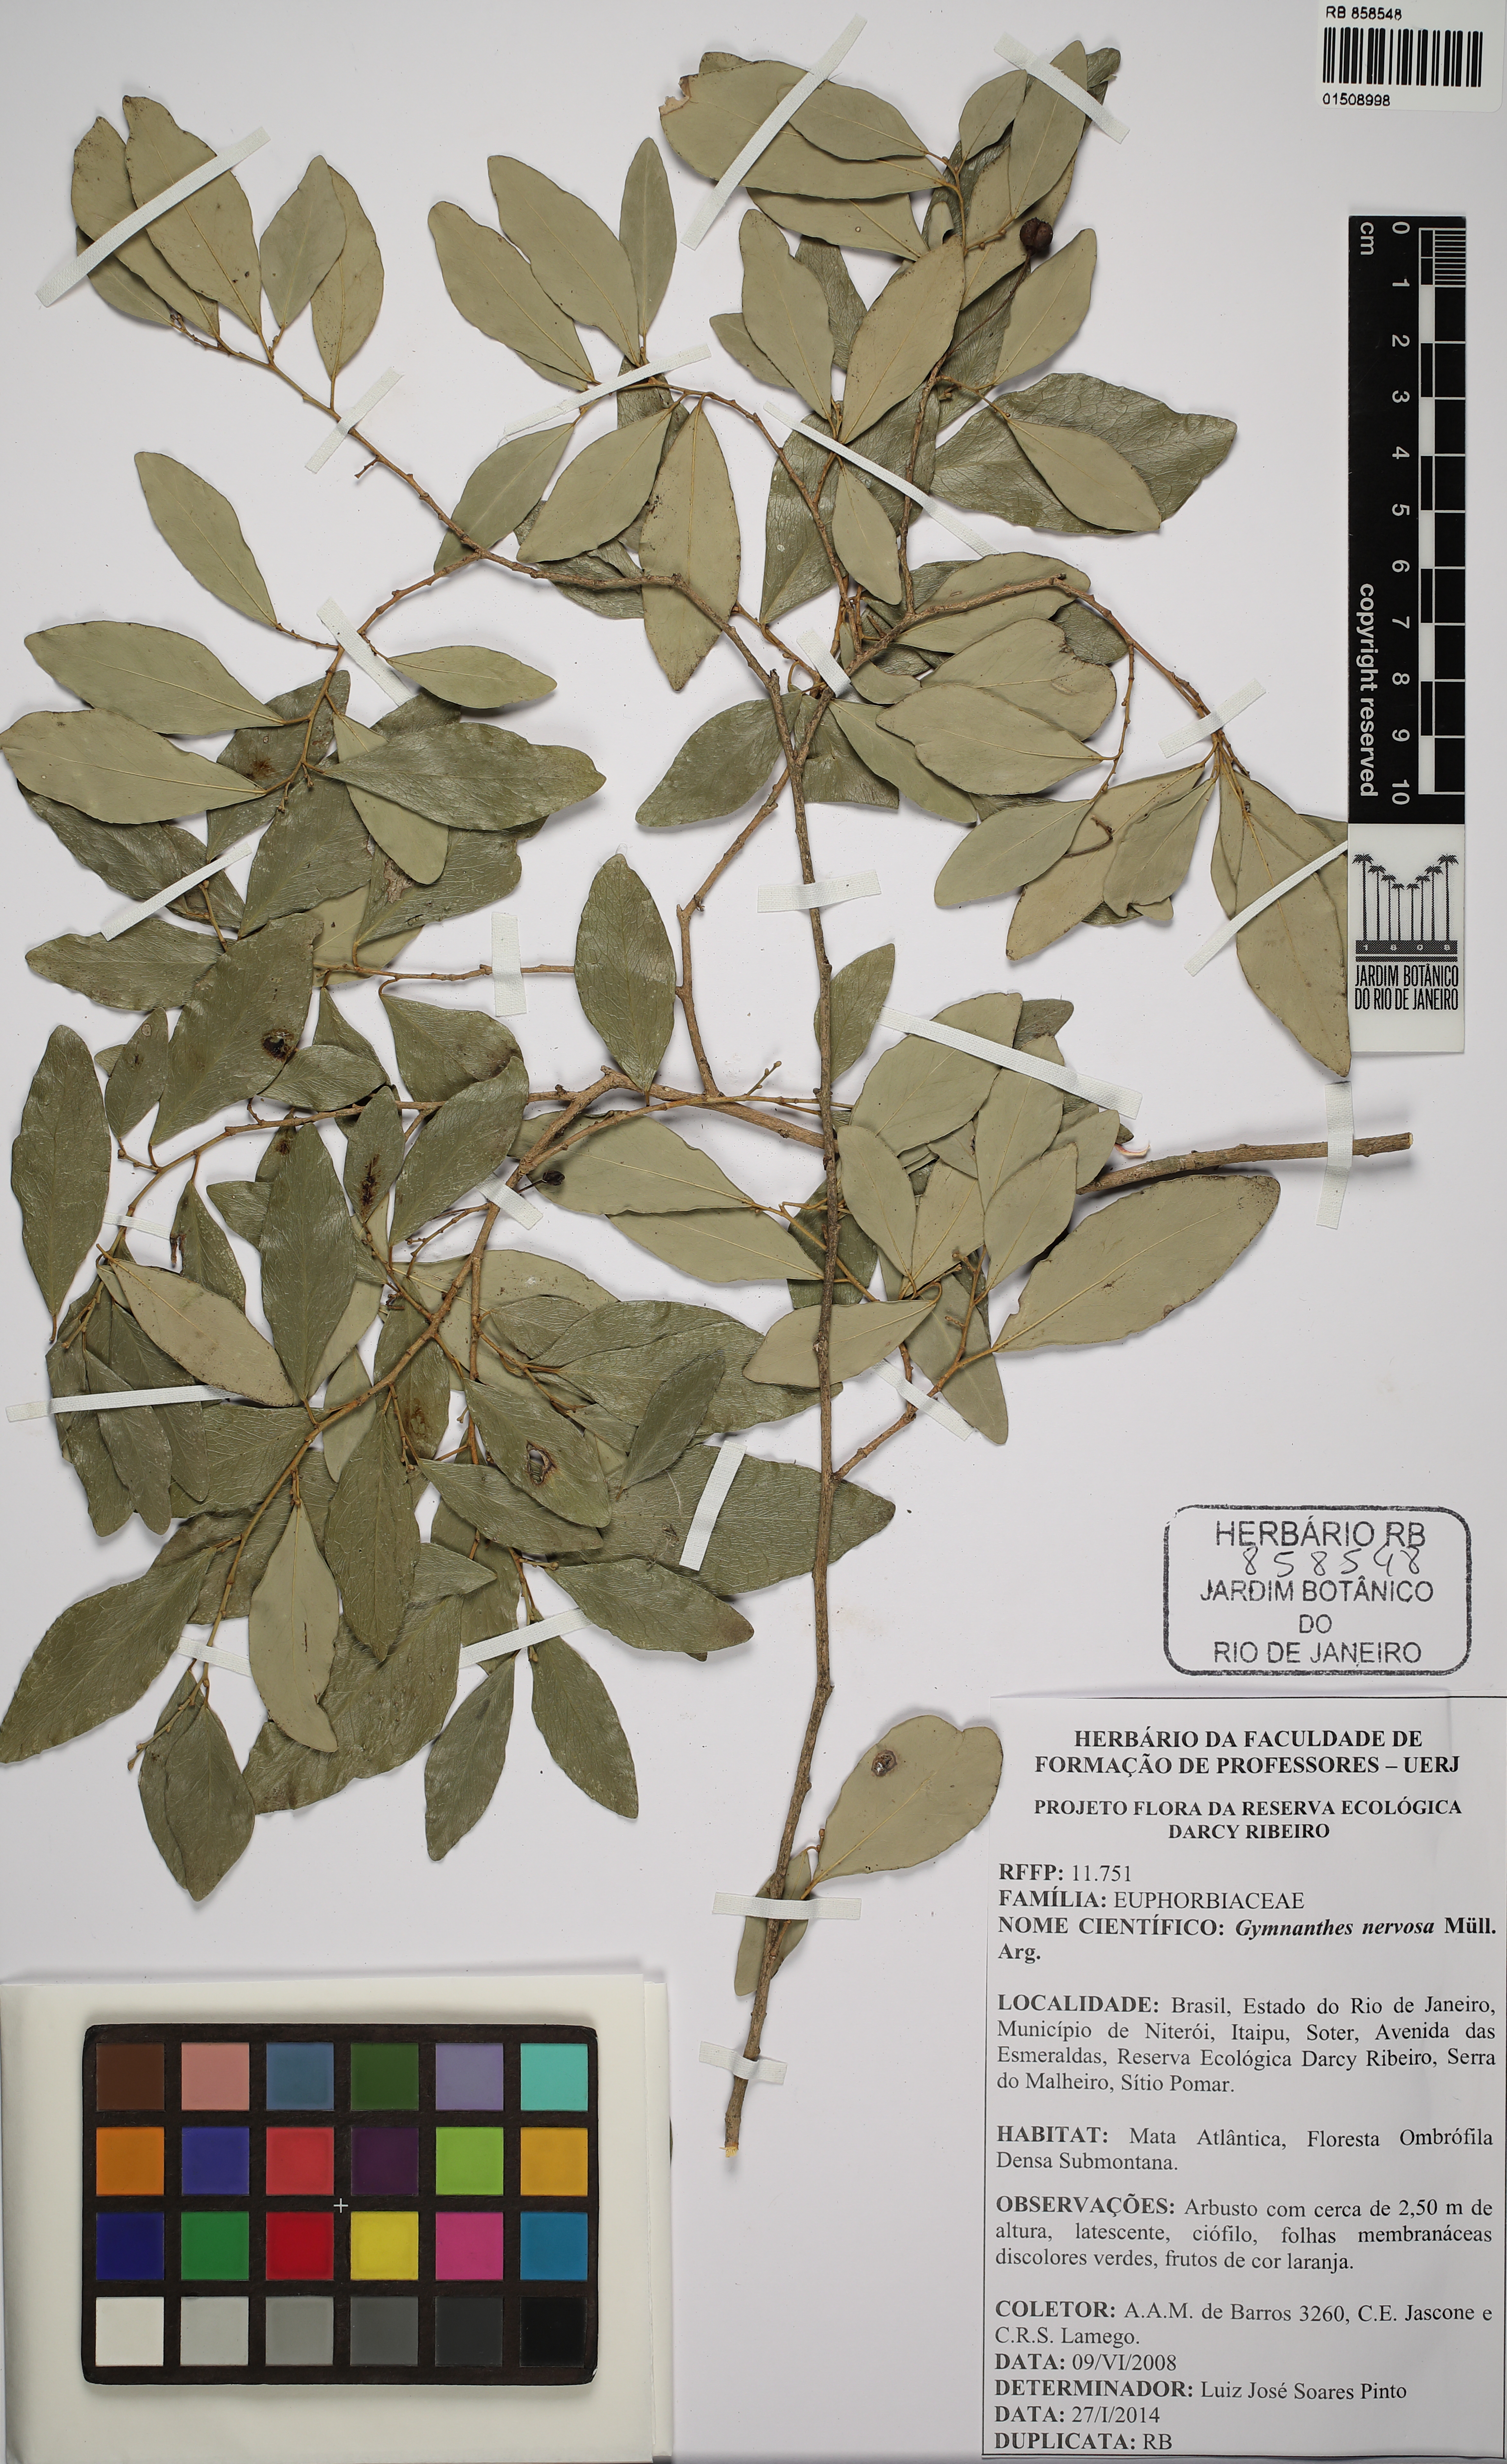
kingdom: Plantae
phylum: Tracheophyta
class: Magnoliopsida
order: Malpighiales
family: Euphorbiaceae
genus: Gymnanthes
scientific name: Gymnanthes nervosa
